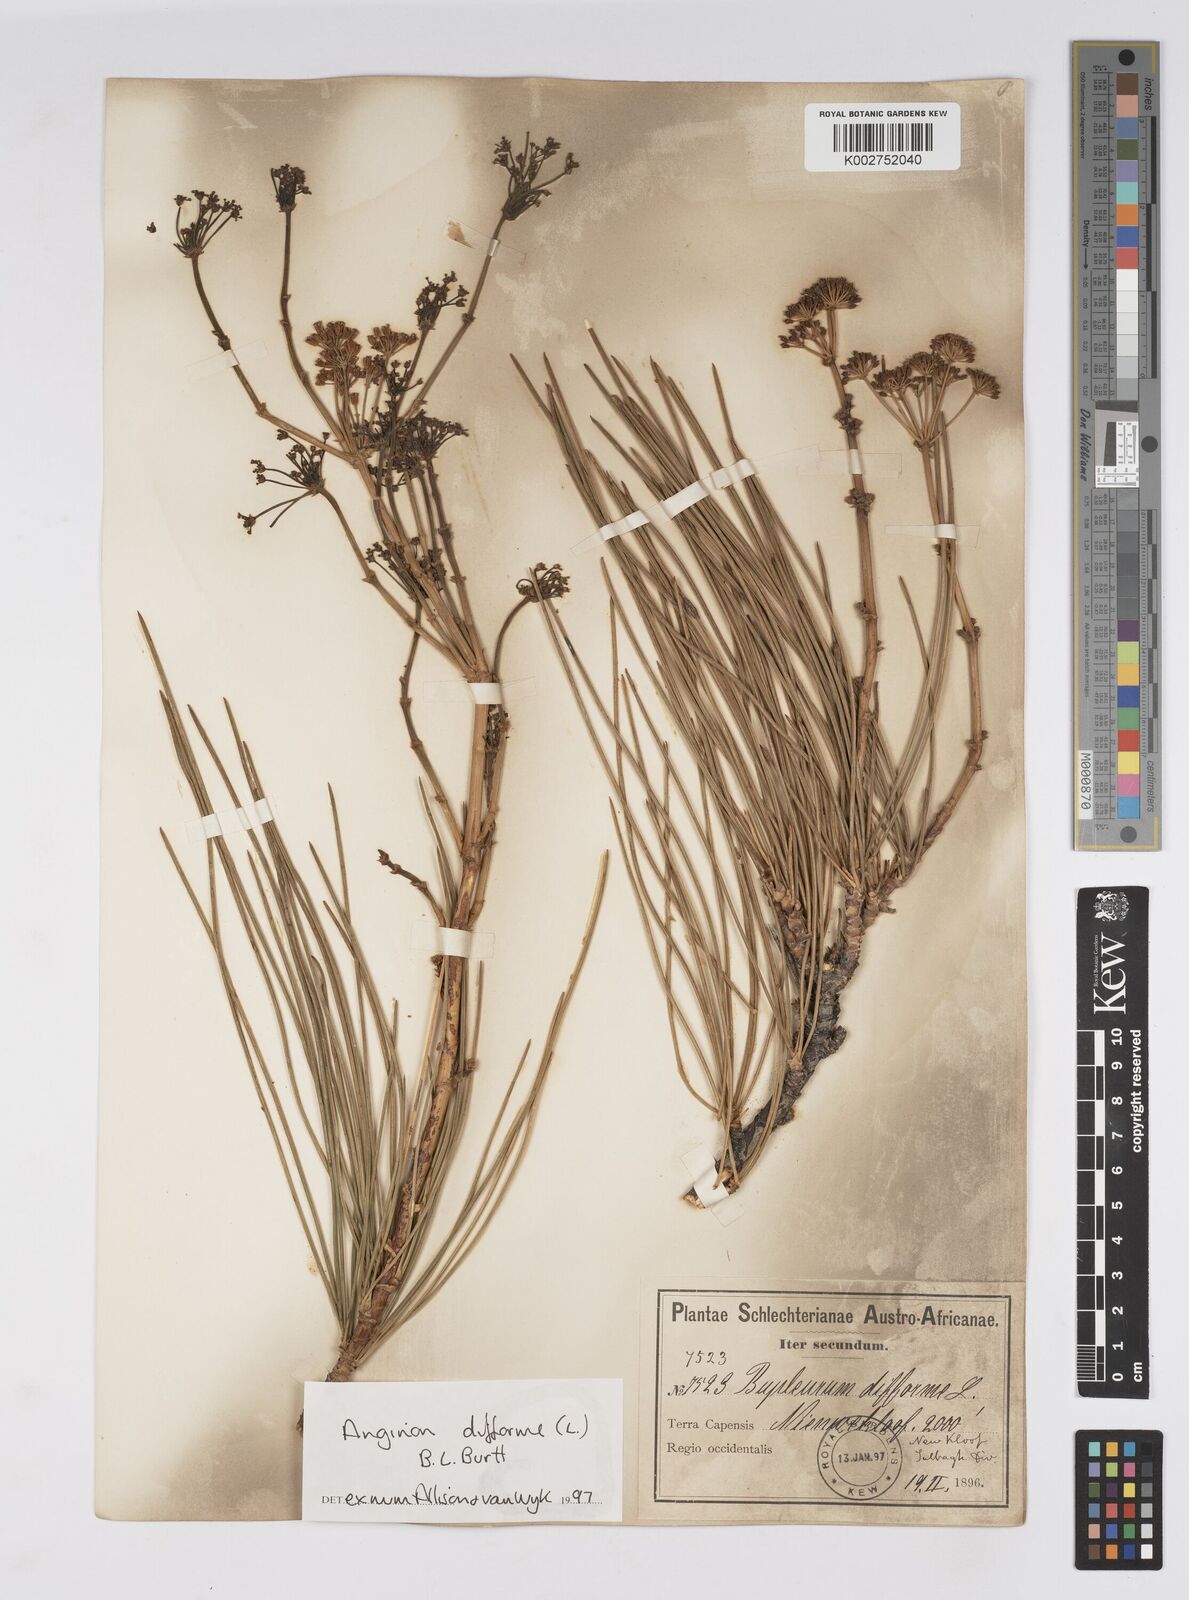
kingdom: Plantae
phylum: Tracheophyta
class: Magnoliopsida
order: Apiales
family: Apiaceae
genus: Anginon
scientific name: Anginon difforme
